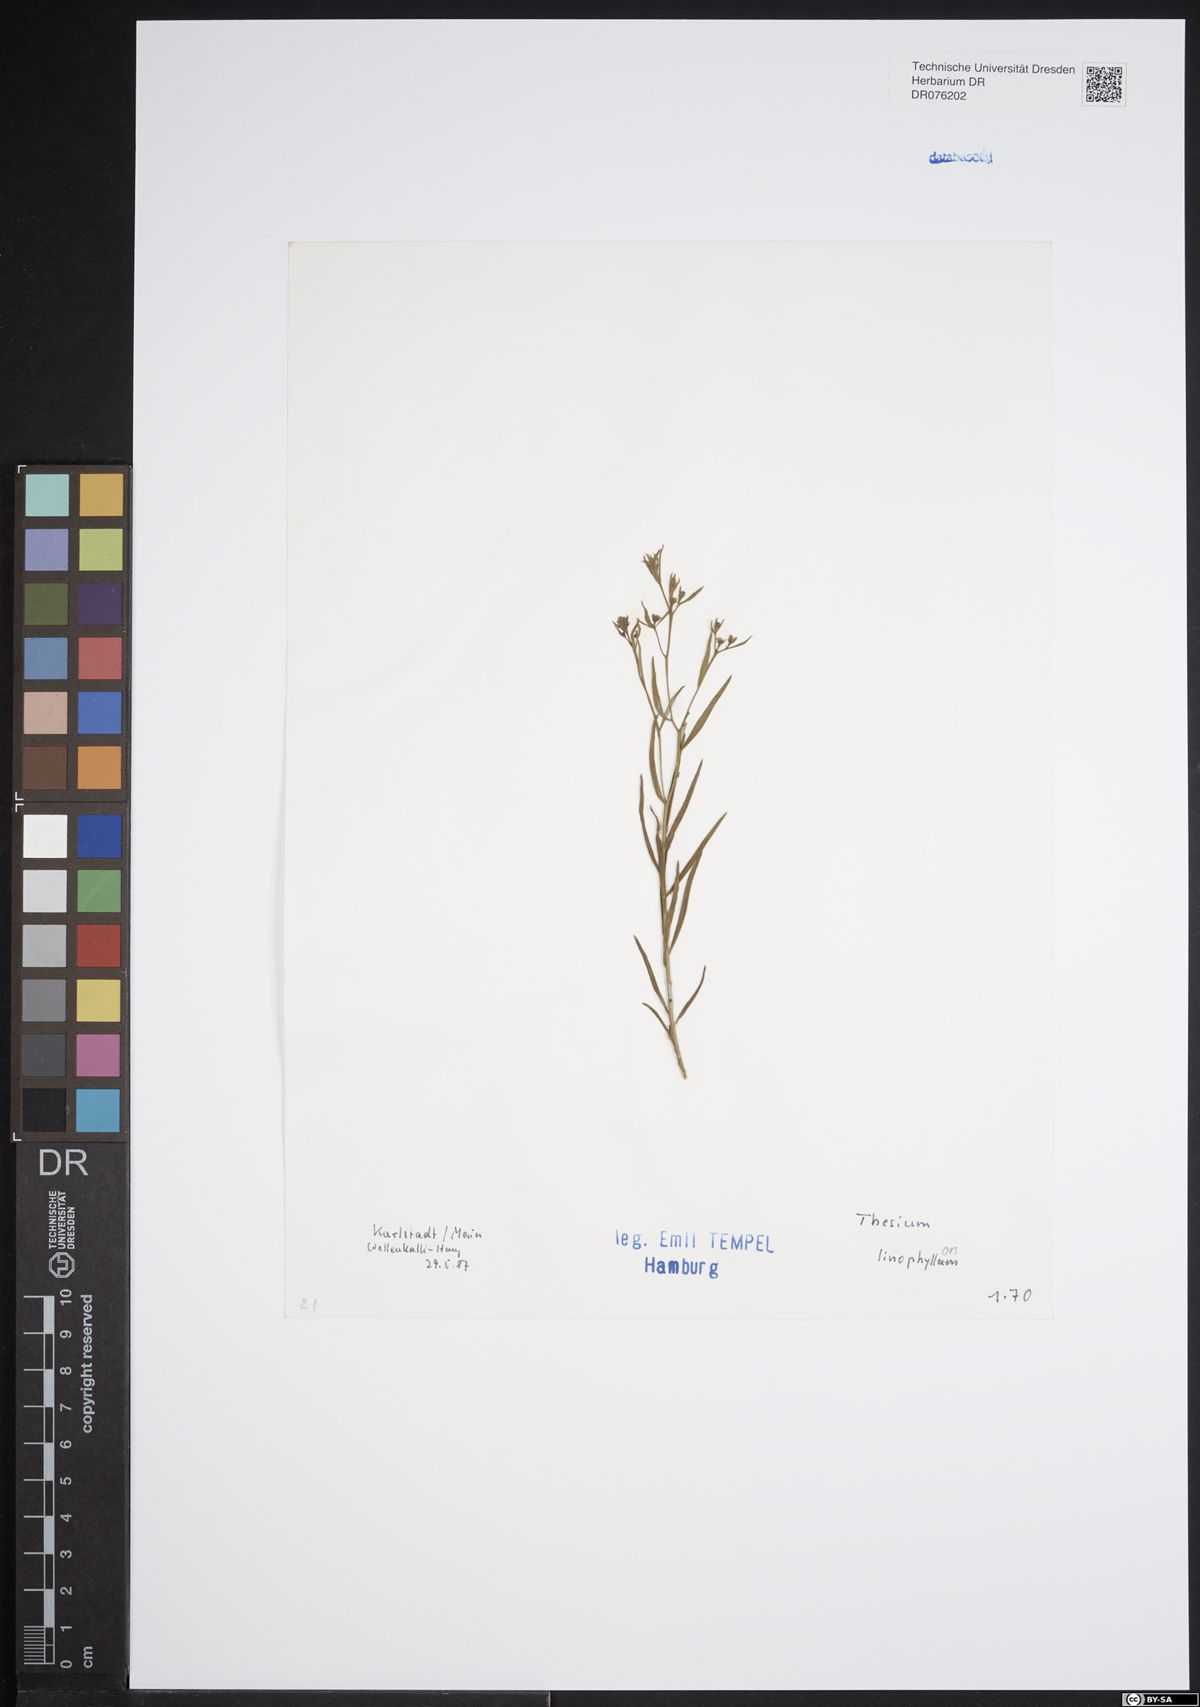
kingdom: Plantae
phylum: Tracheophyta
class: Magnoliopsida
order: Santalales
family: Thesiaceae
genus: Thesium
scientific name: Thesium linophyllon
